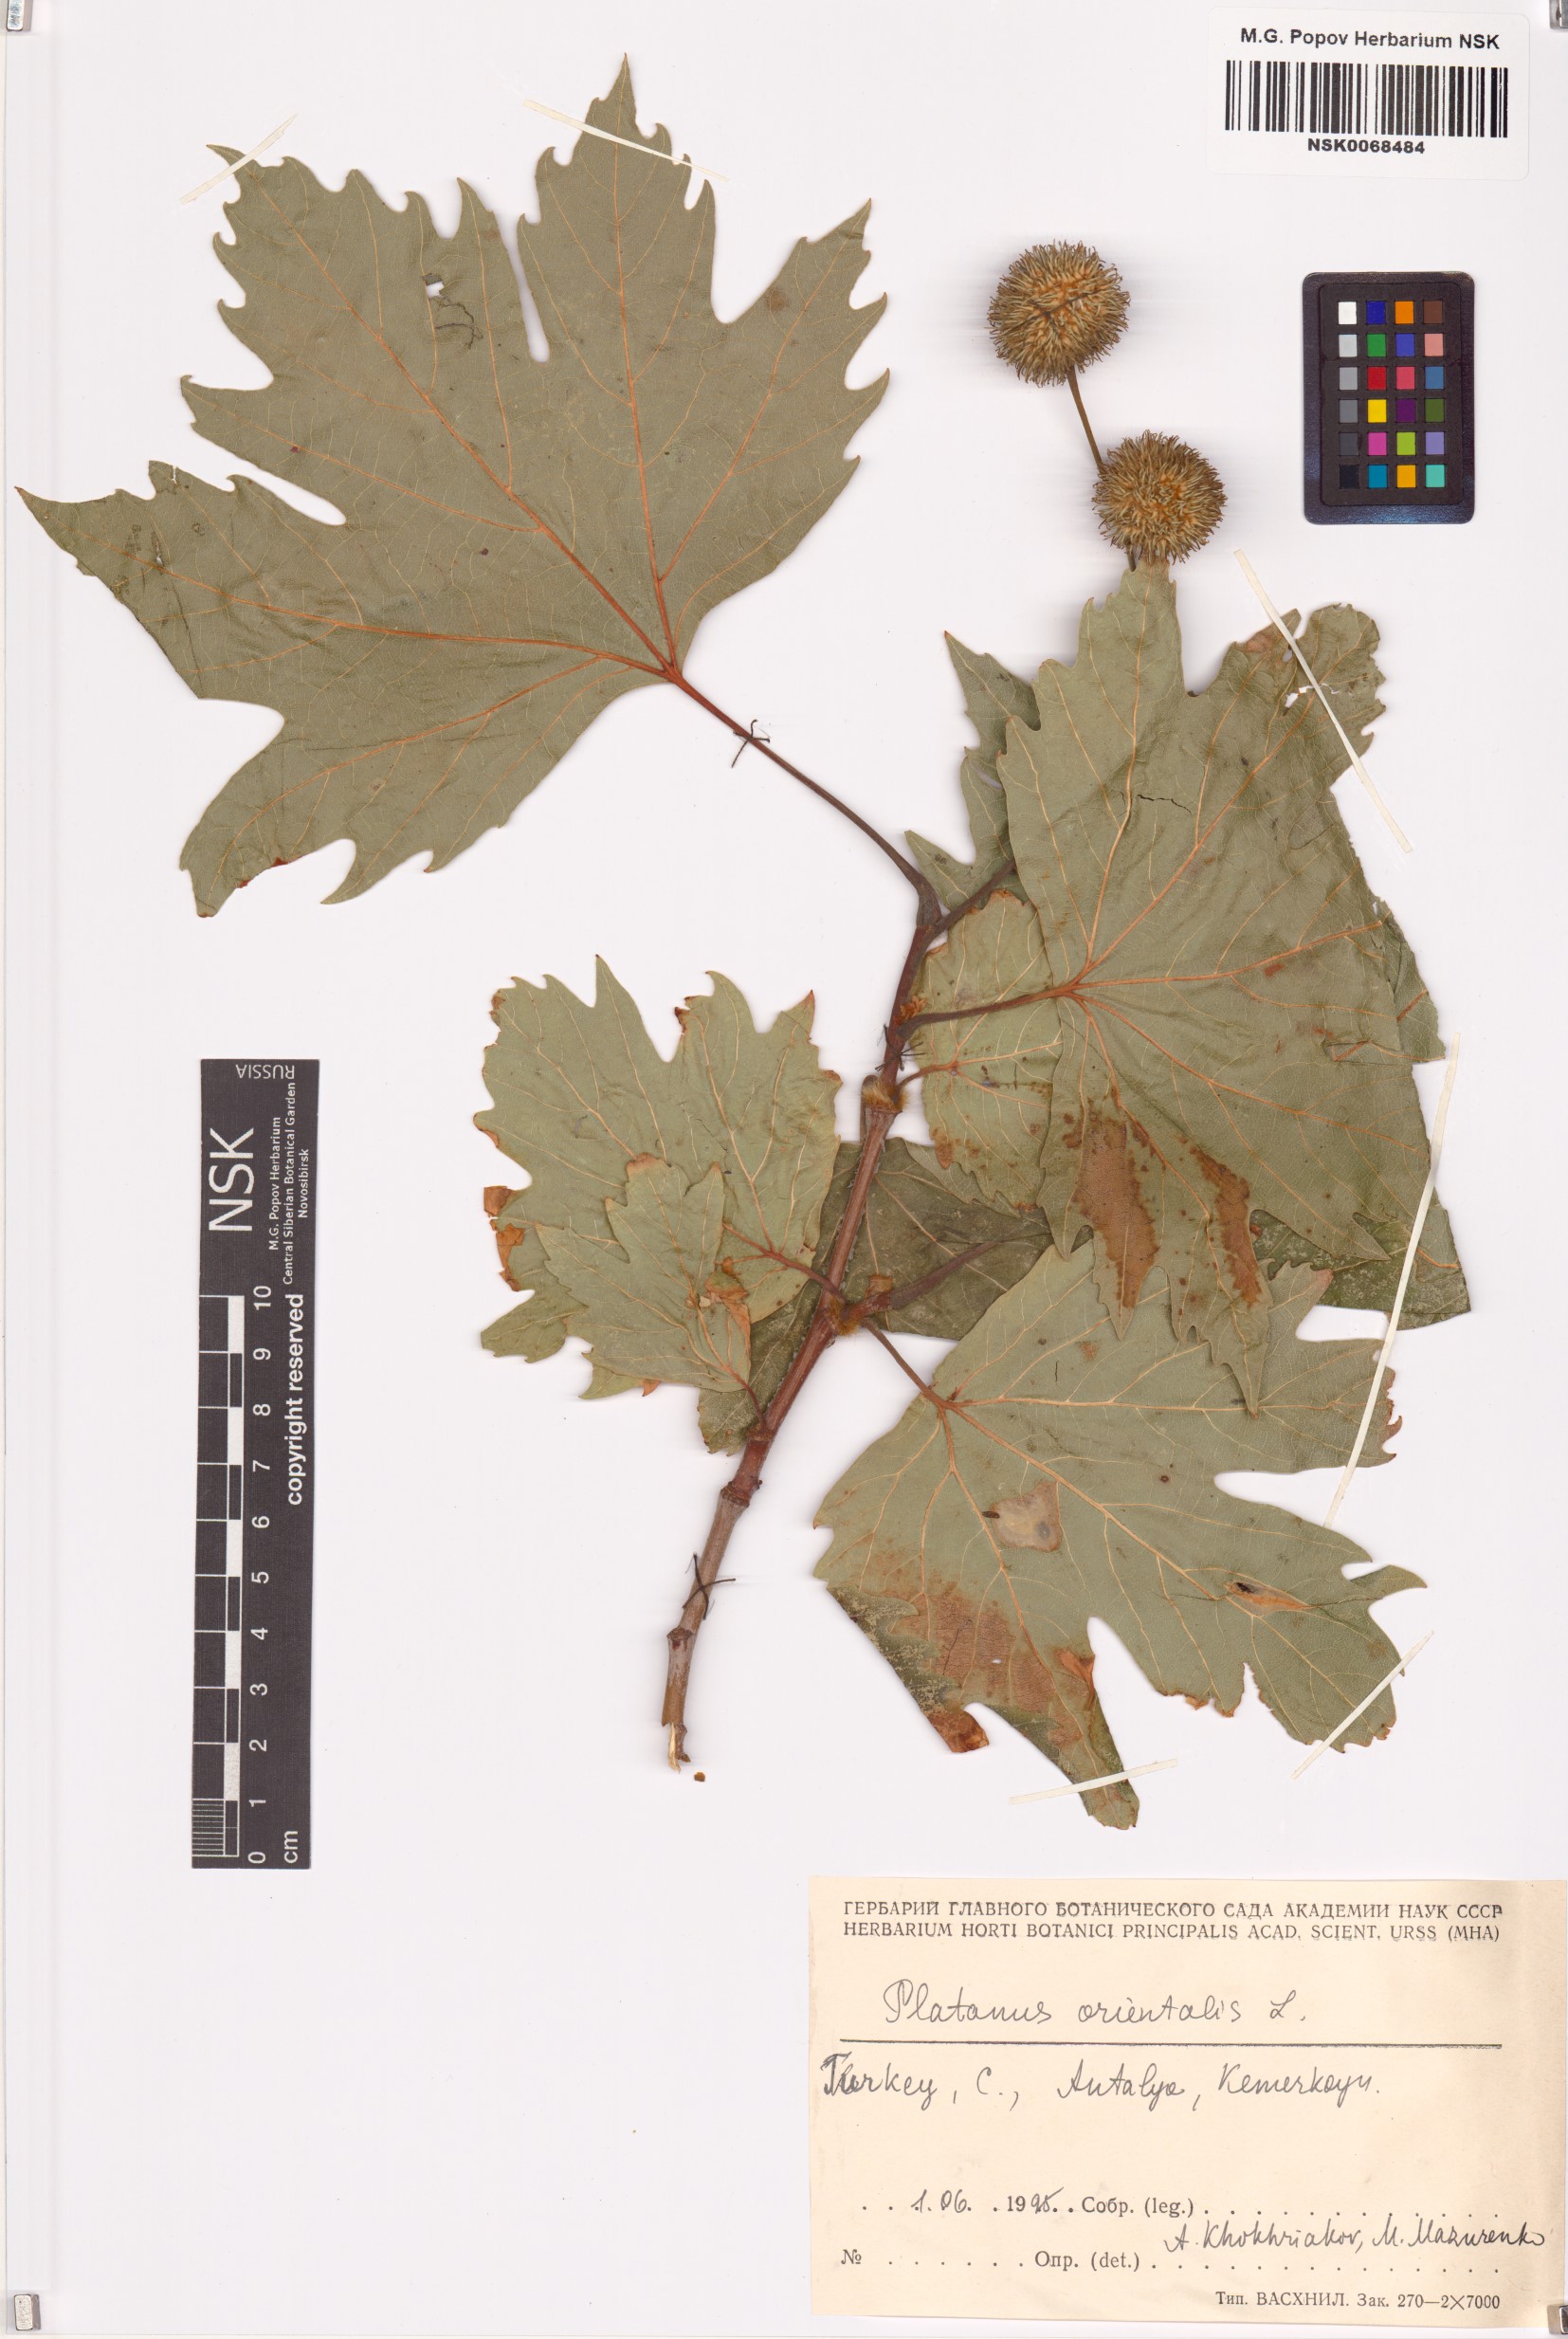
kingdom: Plantae
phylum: Tracheophyta
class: Magnoliopsida
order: Proteales
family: Platanaceae
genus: Platanus
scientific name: Platanus orientalis
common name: Oriental plane
